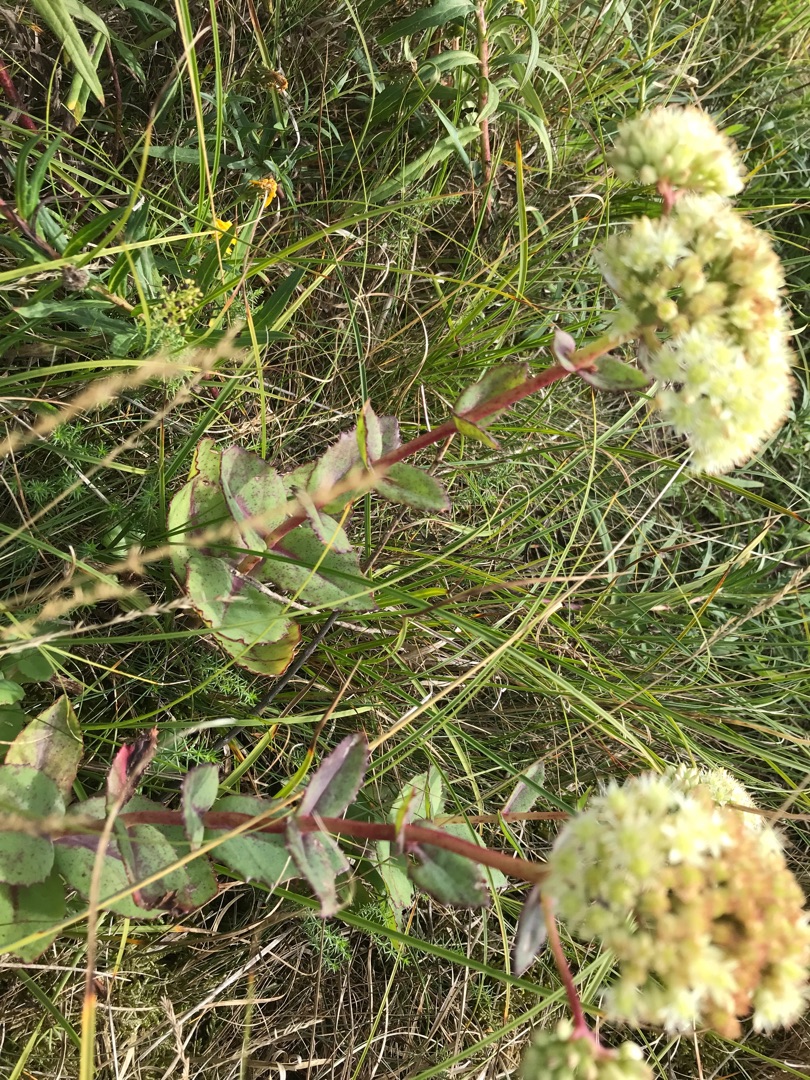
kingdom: Plantae
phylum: Tracheophyta
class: Magnoliopsida
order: Saxifragales
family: Crassulaceae
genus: Hylotelephium
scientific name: Hylotelephium maximum
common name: Almindelig sankthansurt
